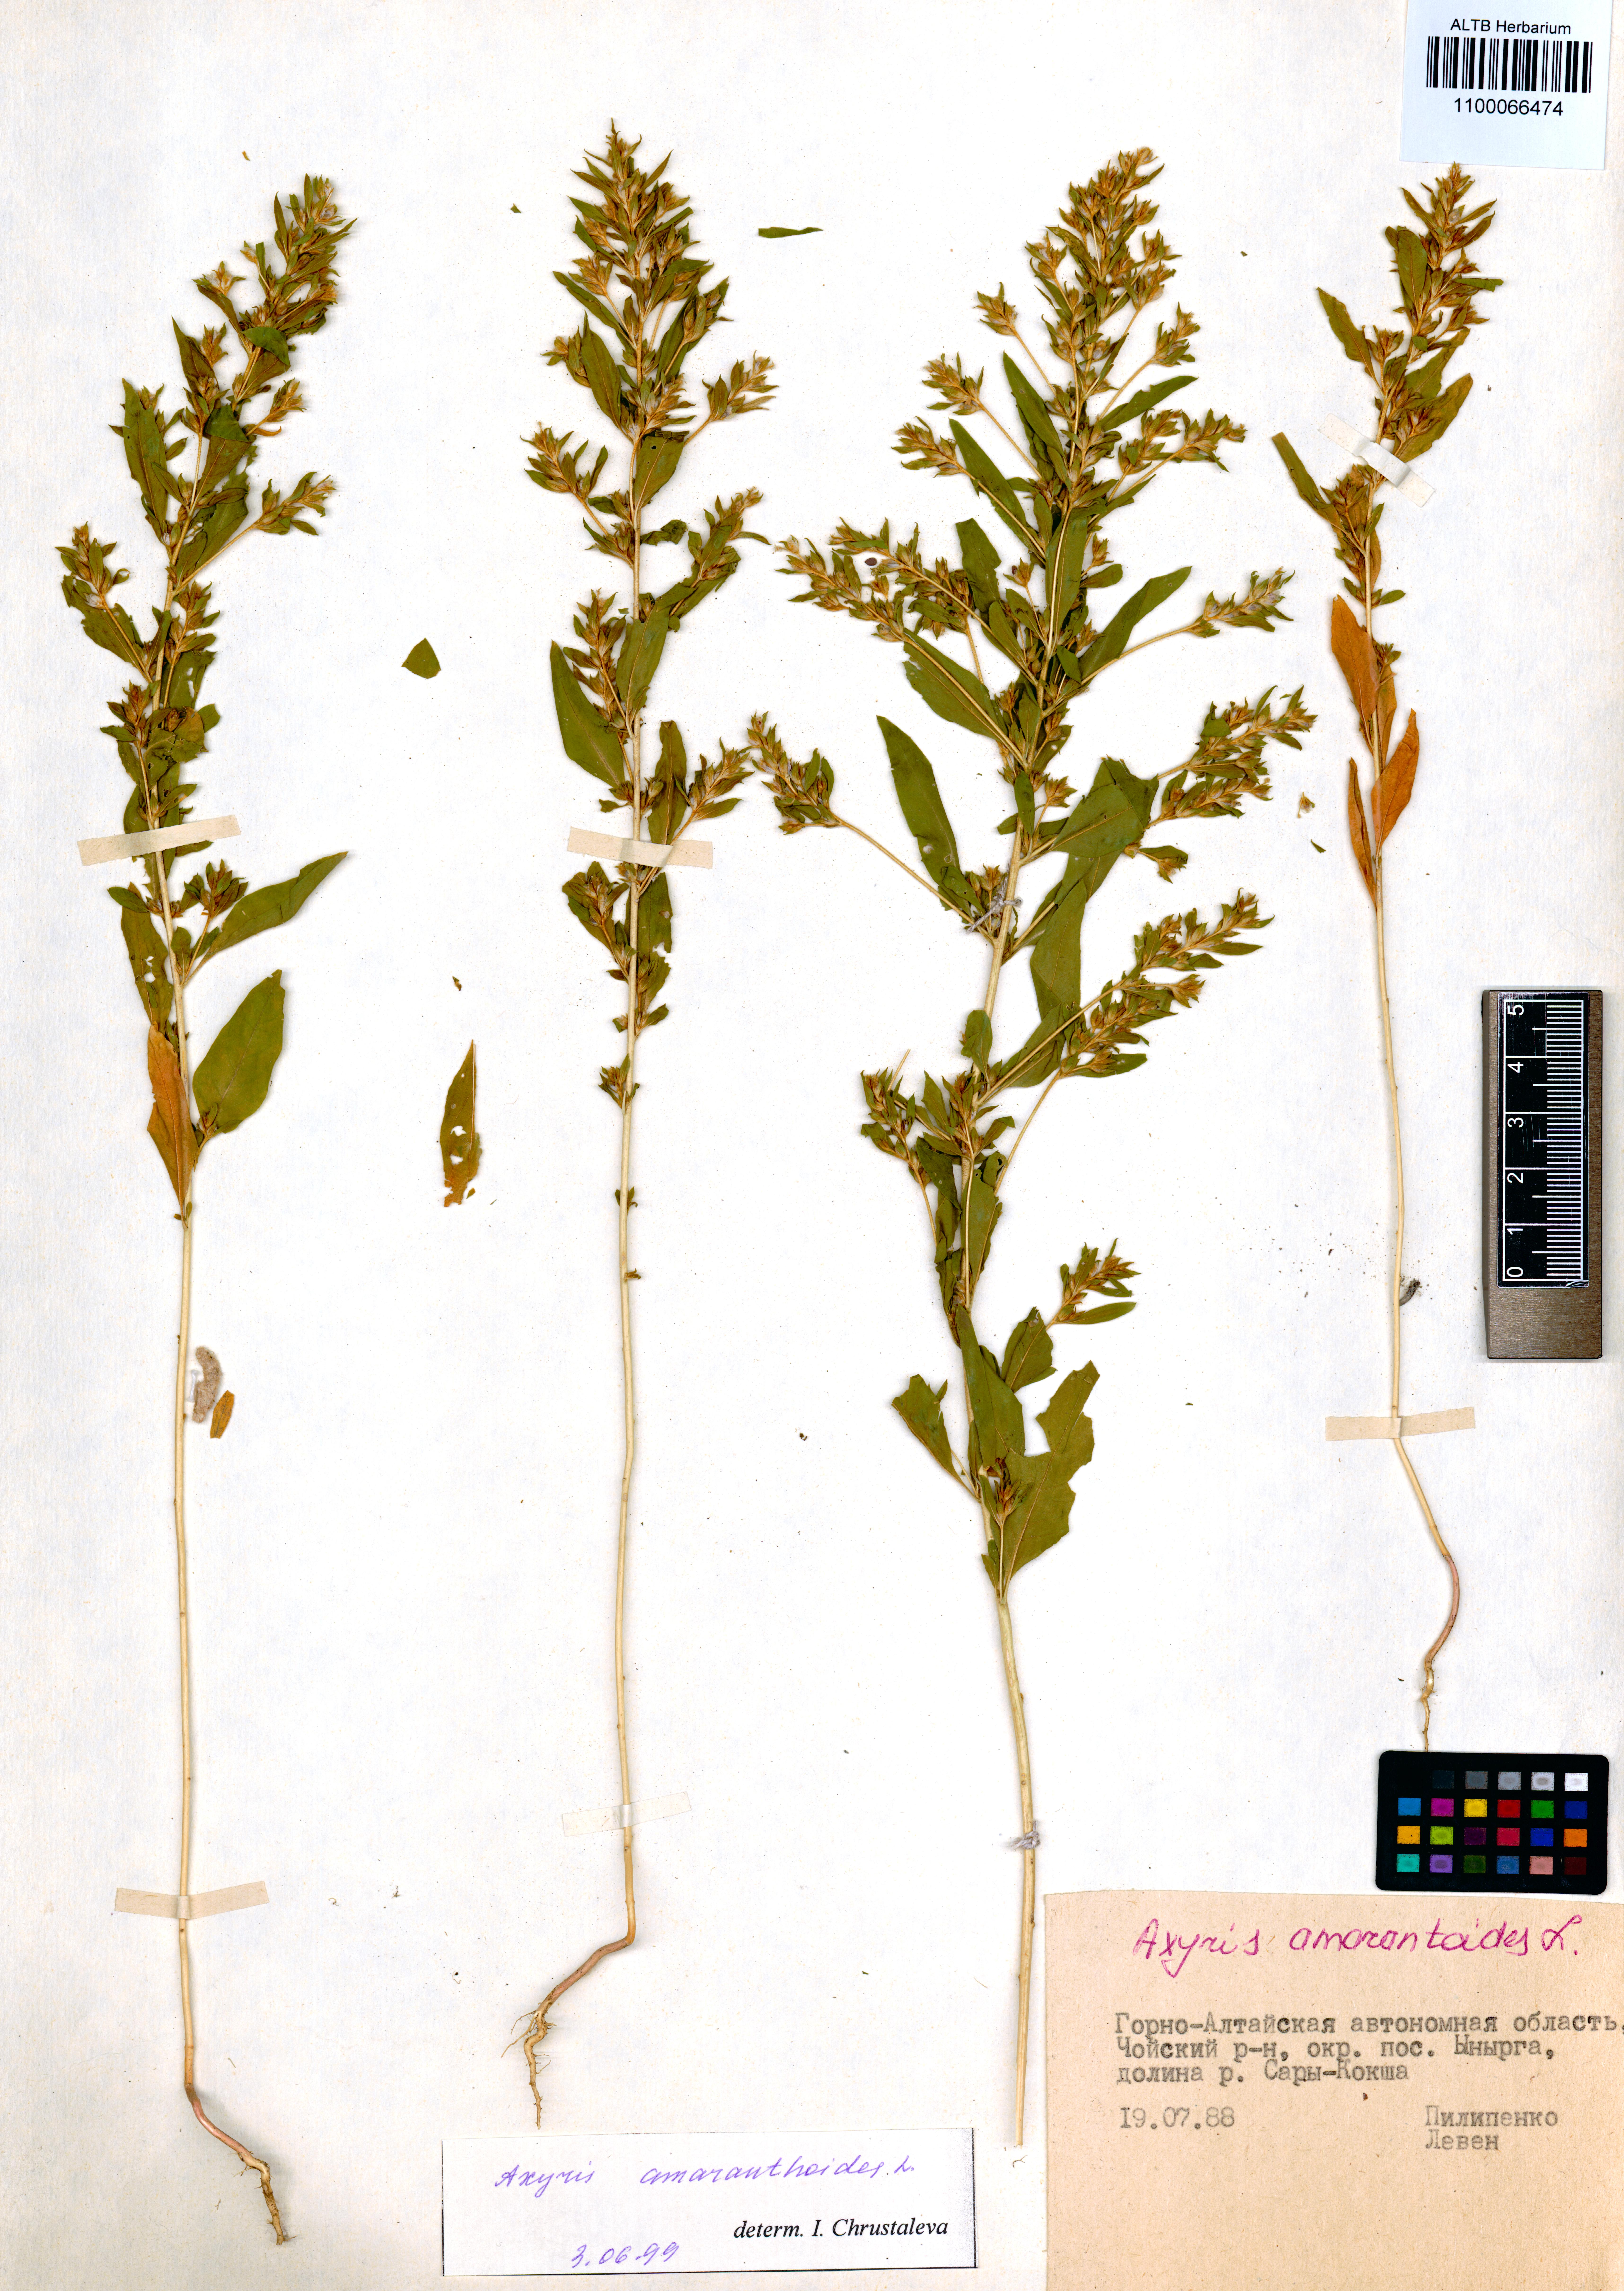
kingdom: Plantae
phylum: Tracheophyta
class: Magnoliopsida
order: Caryophyllales
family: Amaranthaceae
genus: Axyris
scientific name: Axyris amaranthoides
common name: Russian pigweed
